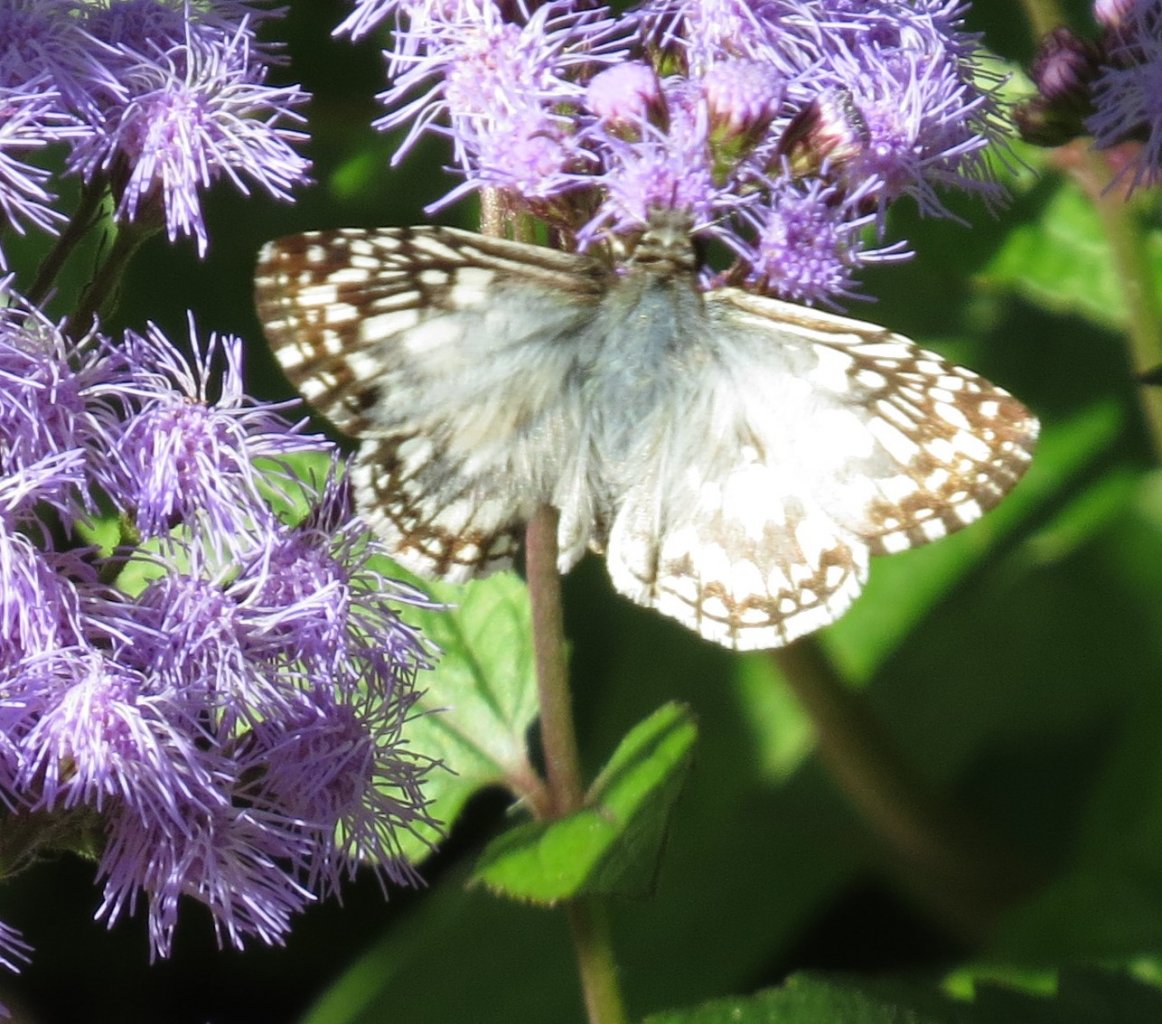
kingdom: Animalia
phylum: Arthropoda
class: Insecta
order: Lepidoptera
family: Hesperiidae
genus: Pyrgus
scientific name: Pyrgus oileus
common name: Tropical Checkered-Skipper
